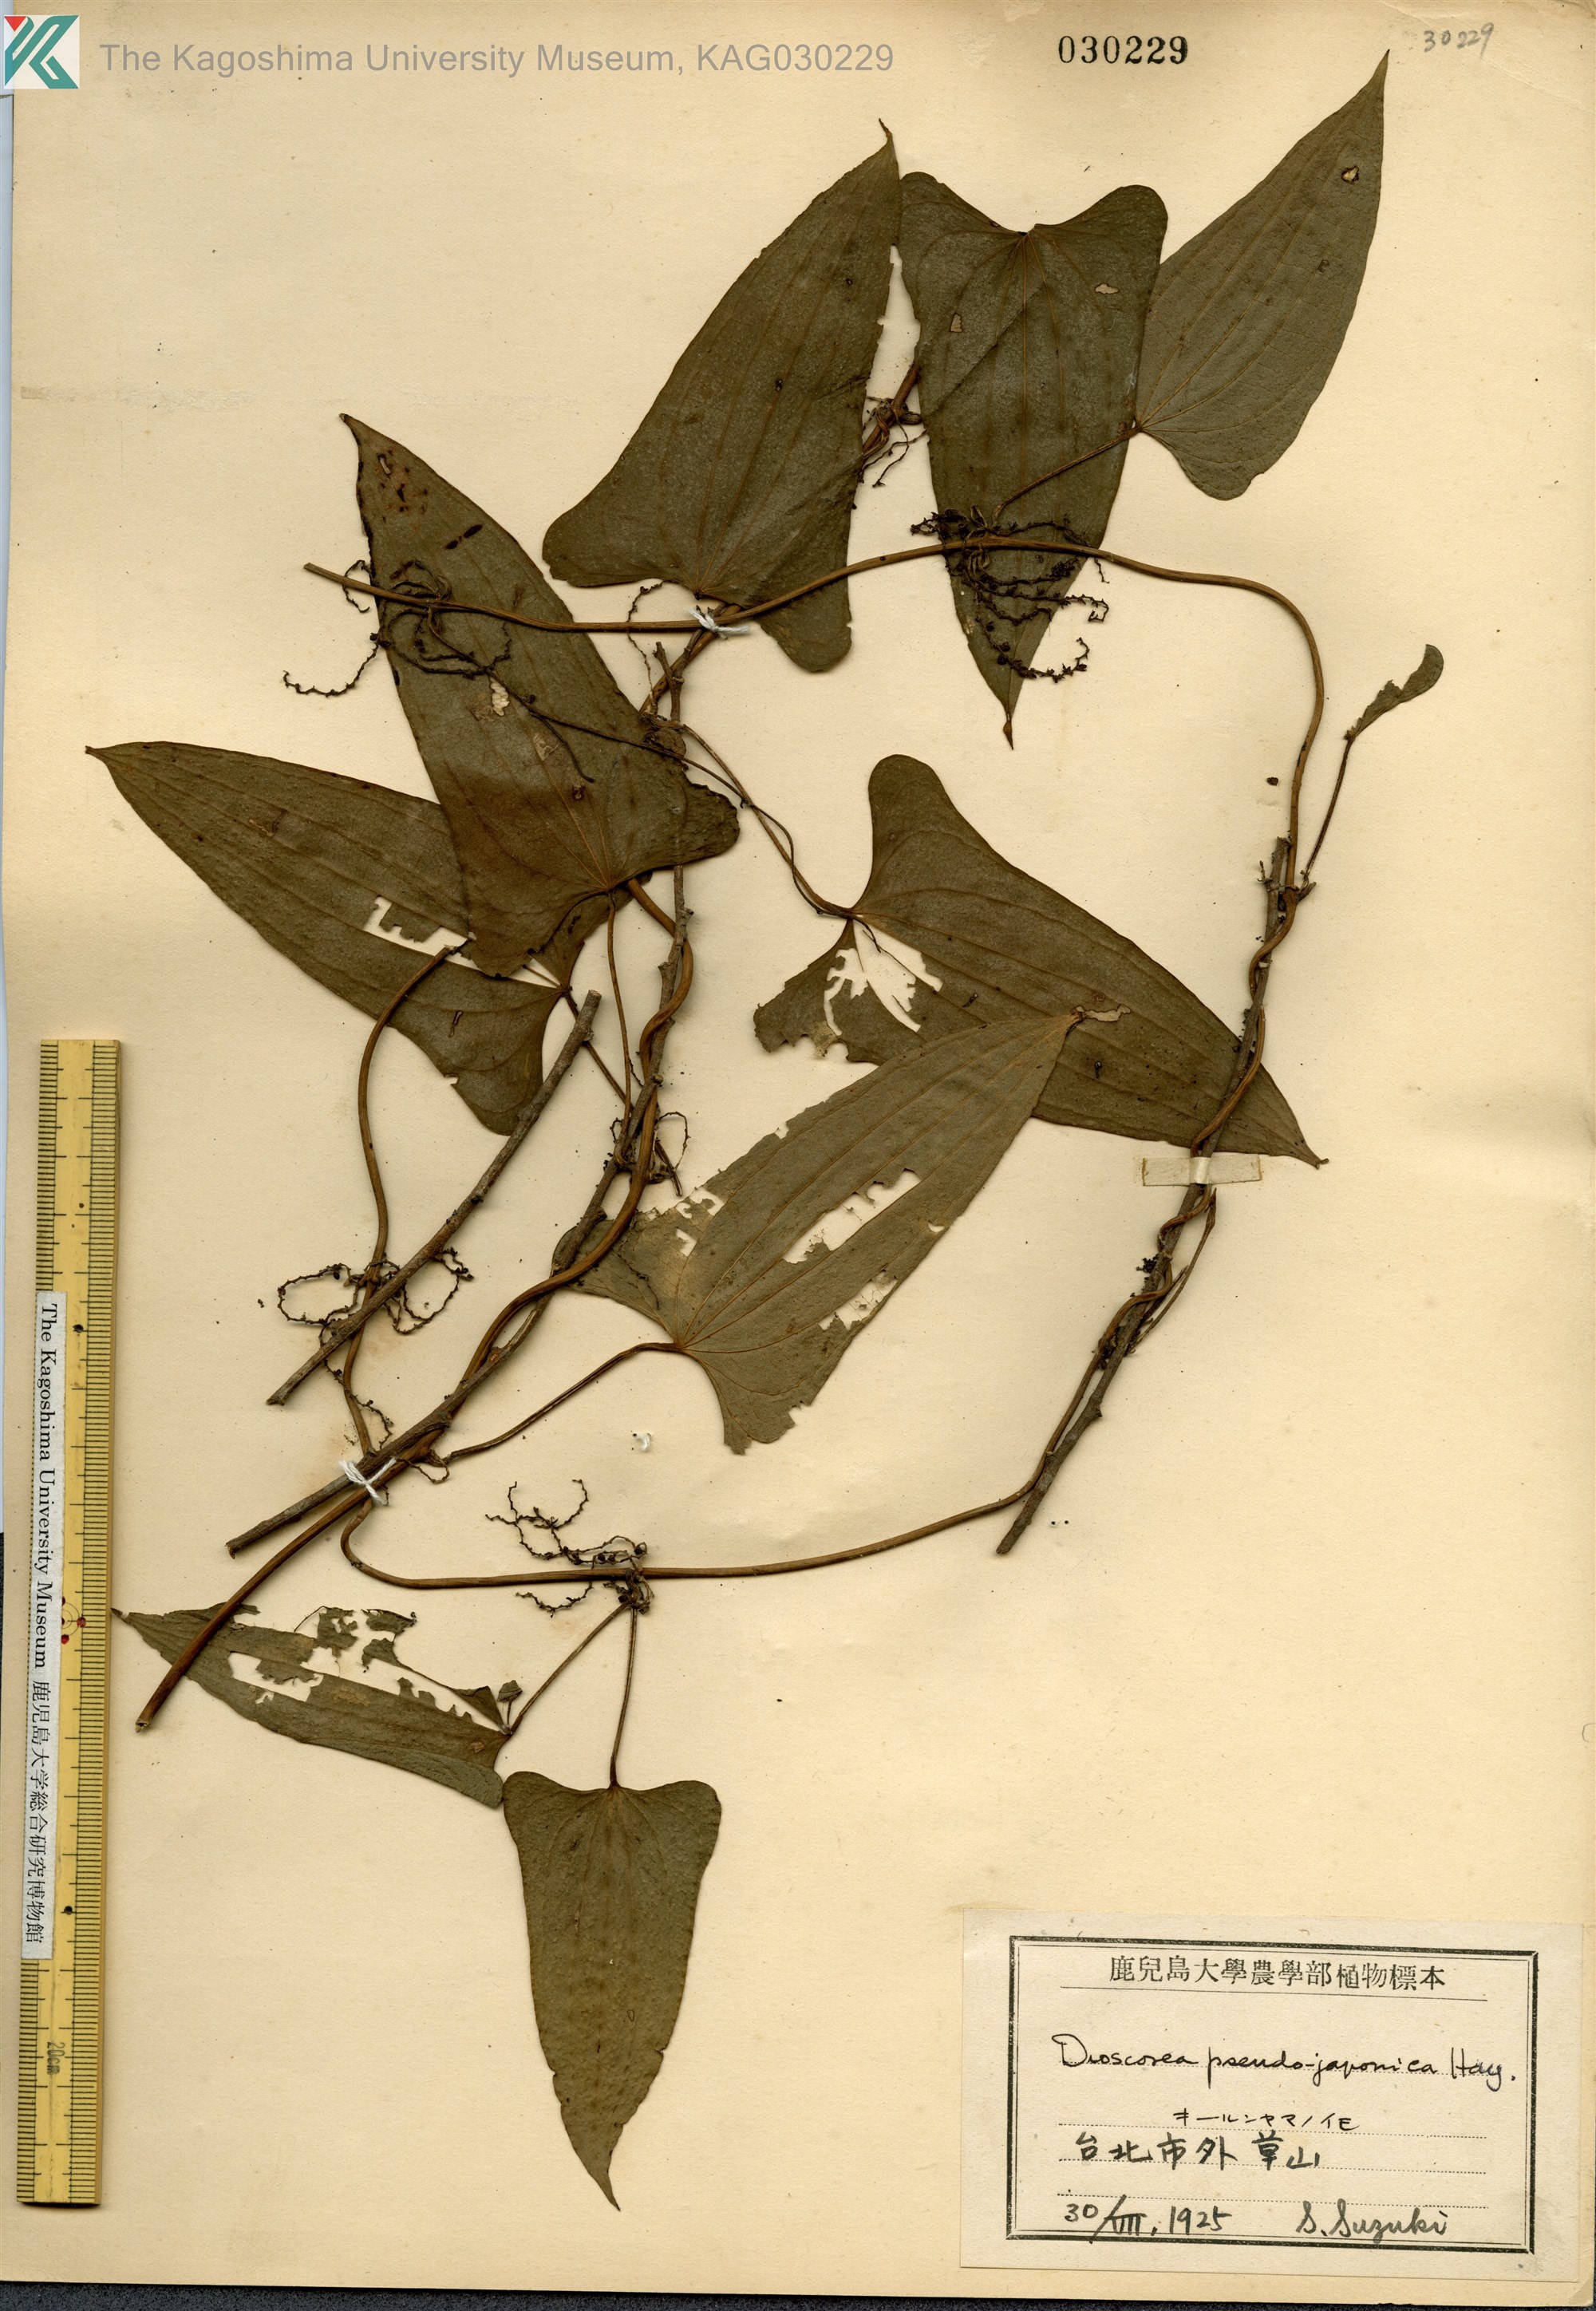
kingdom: Plantae
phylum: Tracheophyta
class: Liliopsida
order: Dioscoreales
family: Dioscoreaceae
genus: Dioscorea
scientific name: Dioscorea pseudojaponica
